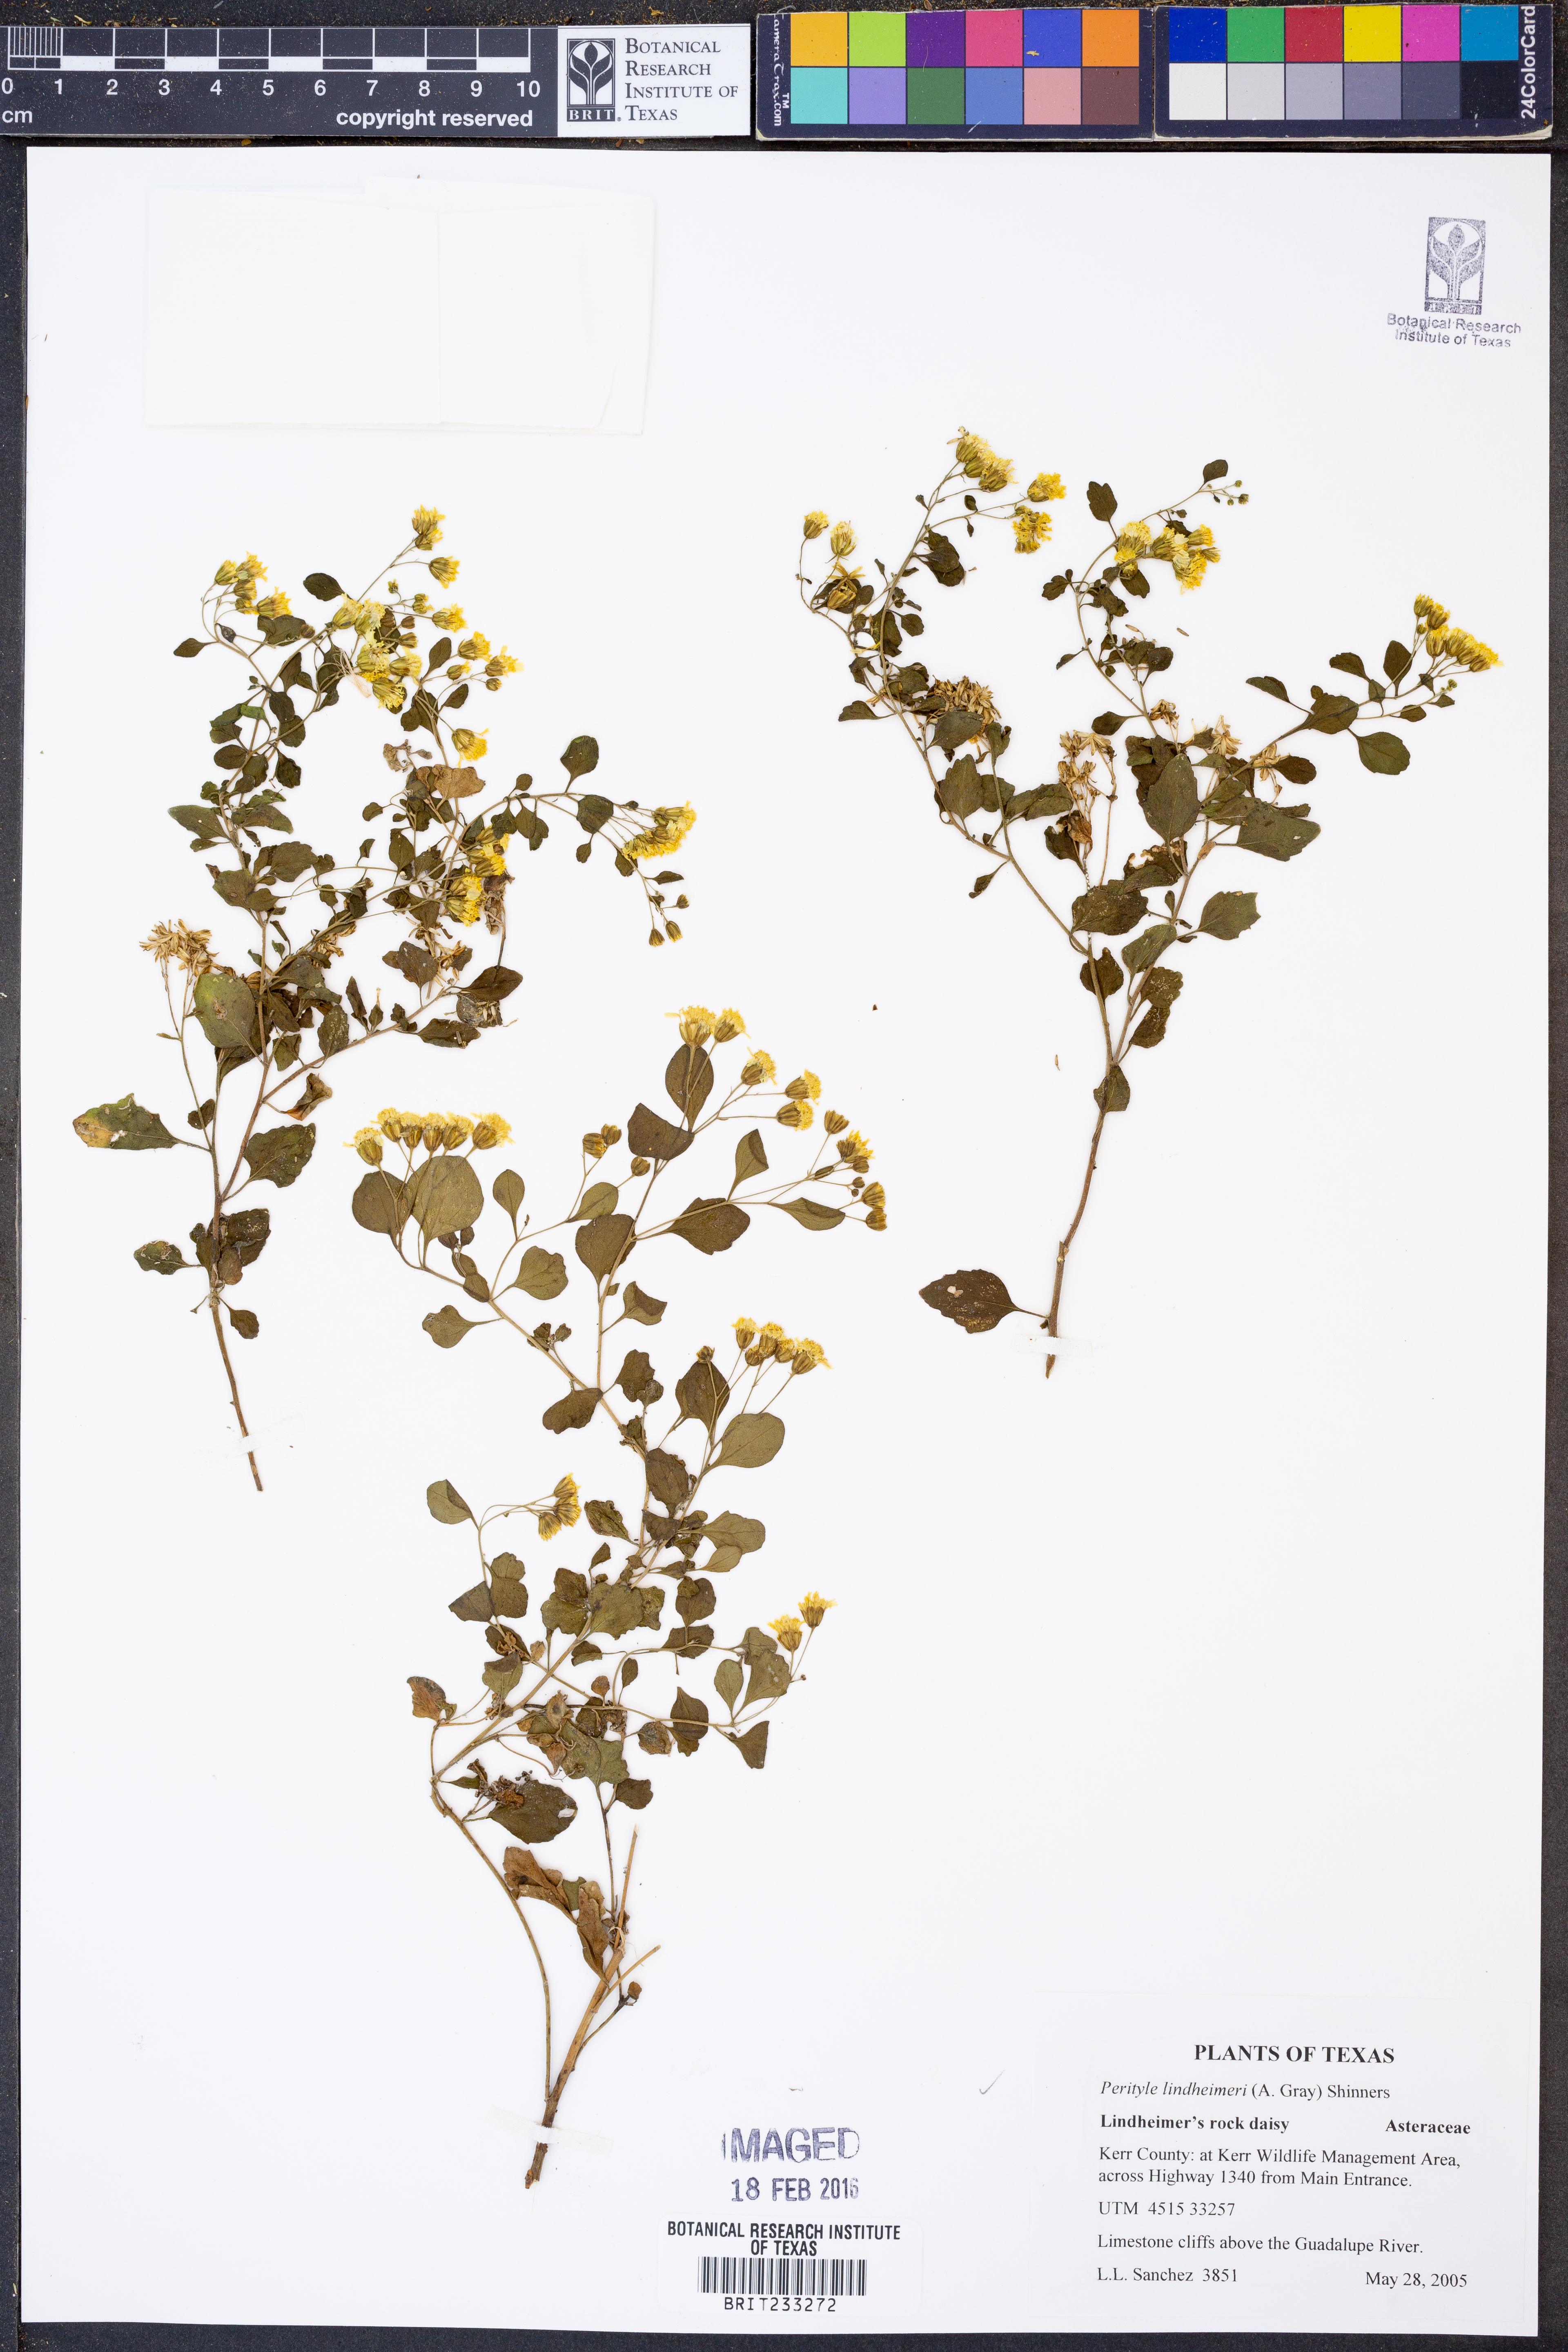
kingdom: Plantae
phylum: Tracheophyta
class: Magnoliopsida
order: Asterales
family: Asteraceae
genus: Laphamia
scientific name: Laphamia lindheimeri
